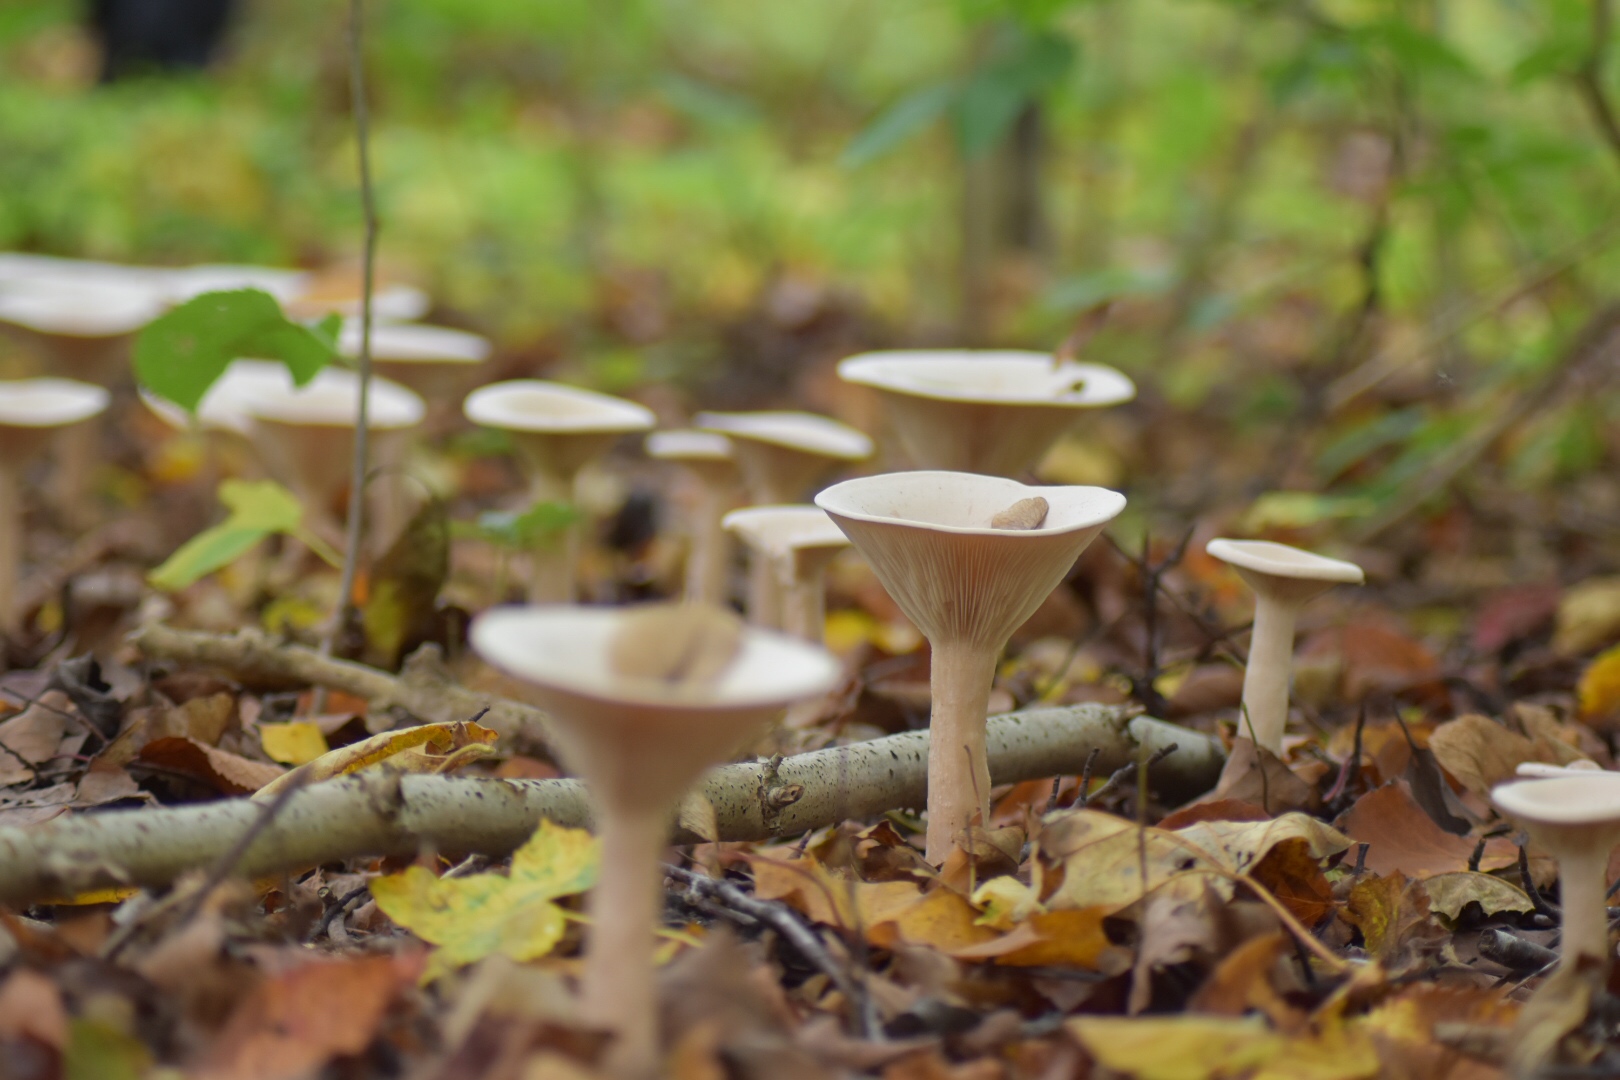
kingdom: Fungi
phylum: Basidiomycota
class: Agaricomycetes
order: Agaricales
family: Tricholomataceae
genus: Infundibulicybe
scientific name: Infundibulicybe geotropa
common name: stor tragthat
